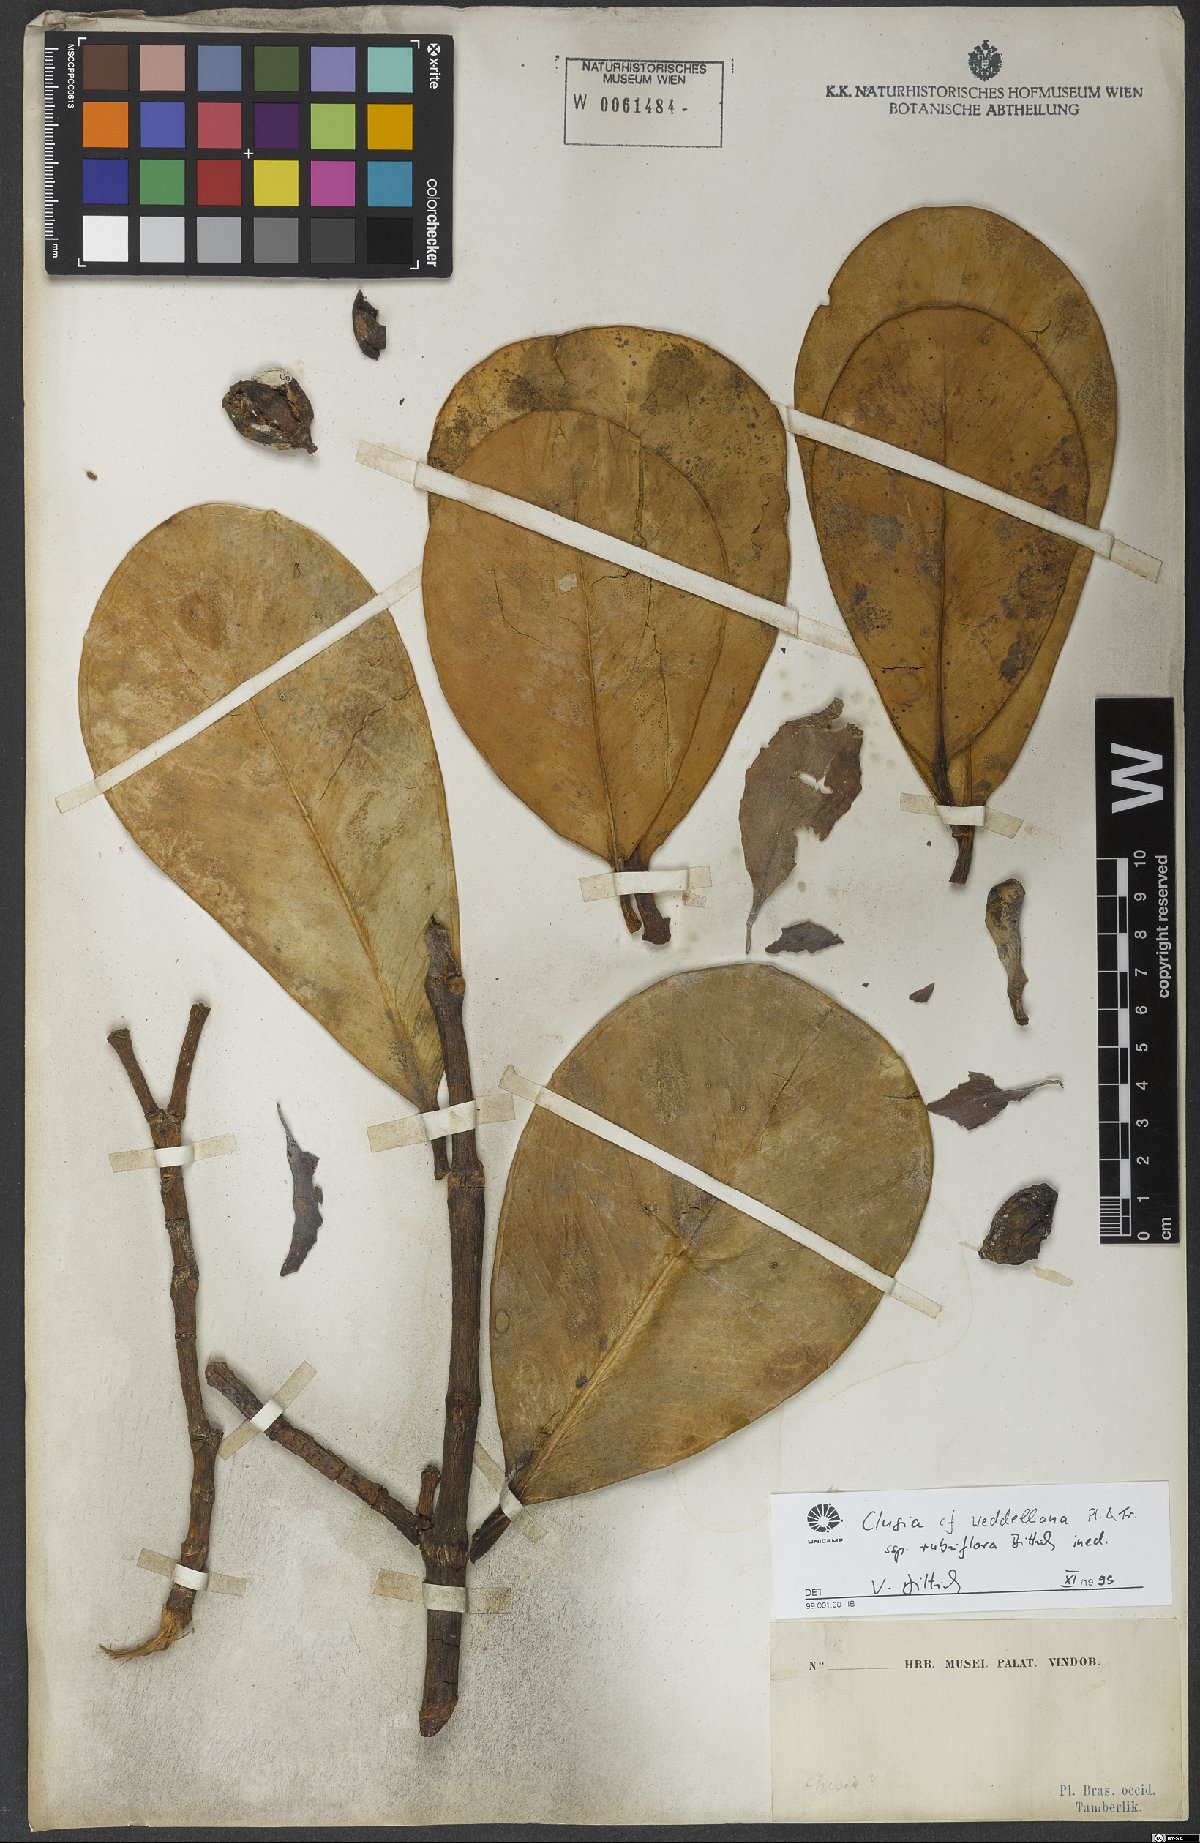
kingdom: Plantae
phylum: Tracheophyta
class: Magnoliopsida
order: Malpighiales
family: Clusiaceae
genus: Clusia
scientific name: Clusia weddelliana
